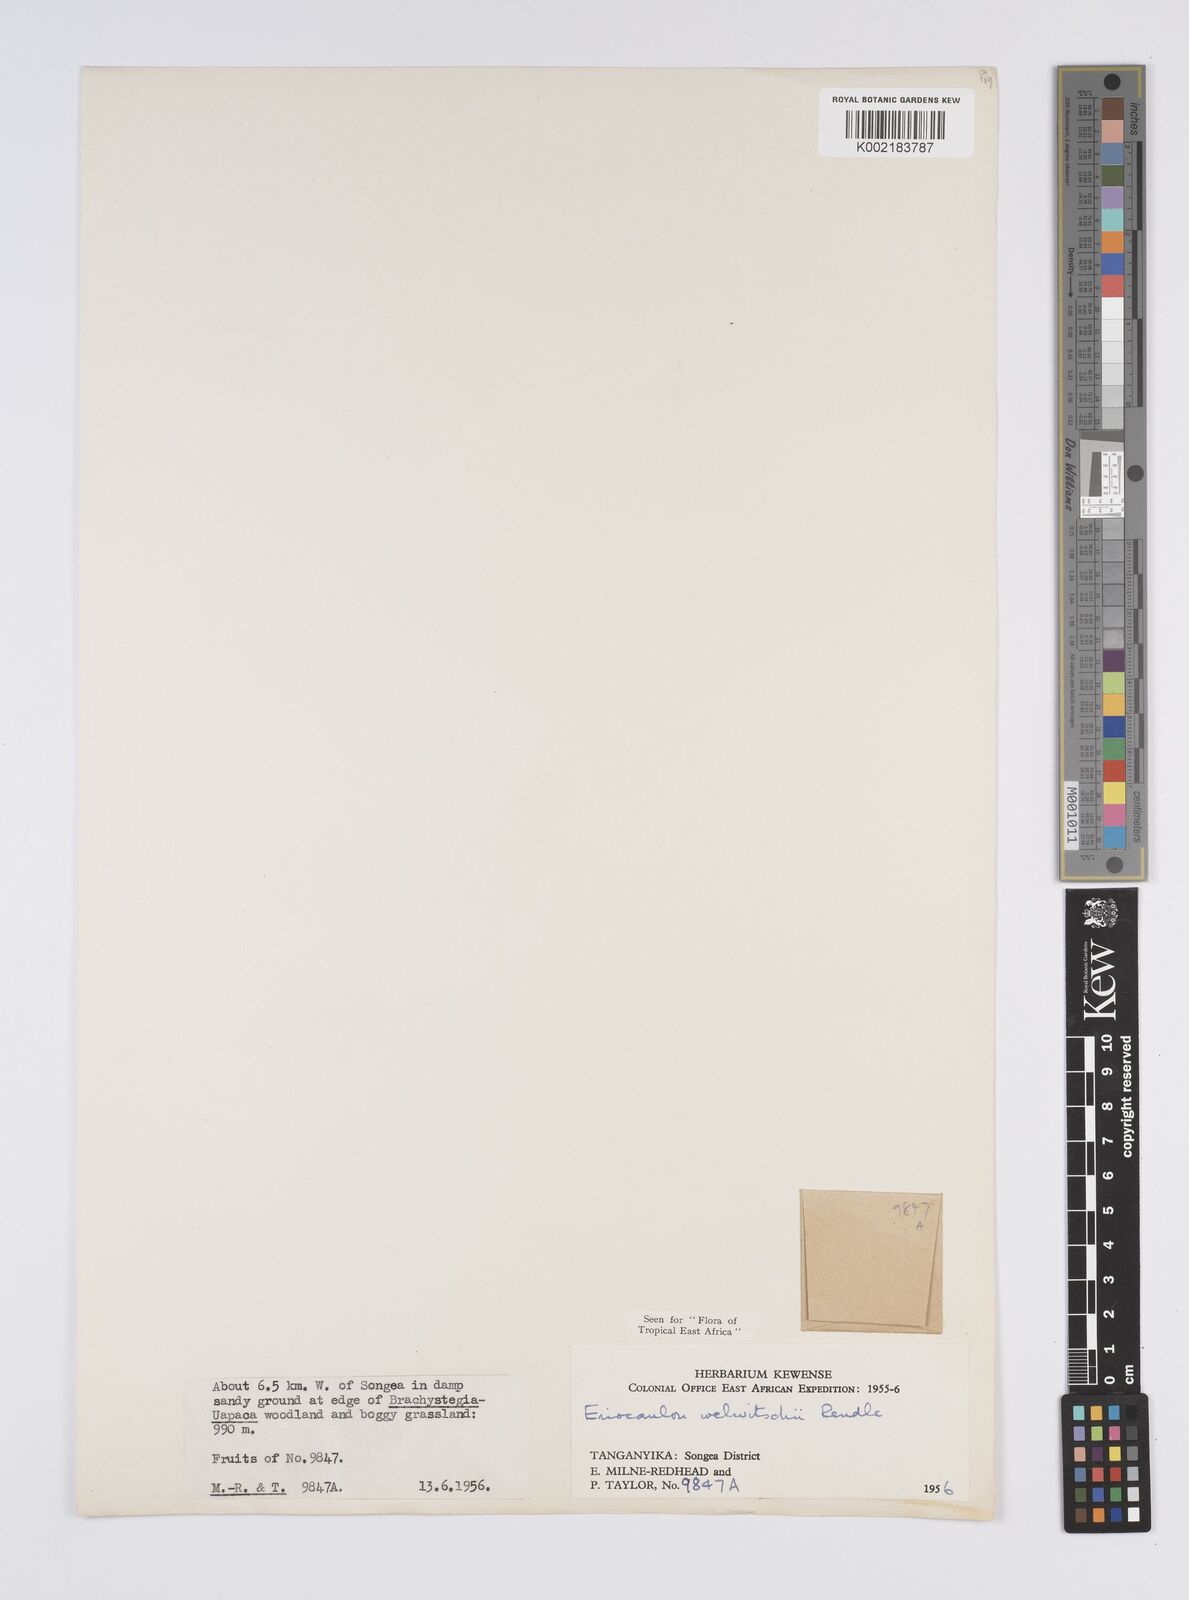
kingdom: Plantae
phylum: Tracheophyta
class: Liliopsida
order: Poales
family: Eriocaulaceae
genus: Eriocaulon
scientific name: Eriocaulon welwitschii
